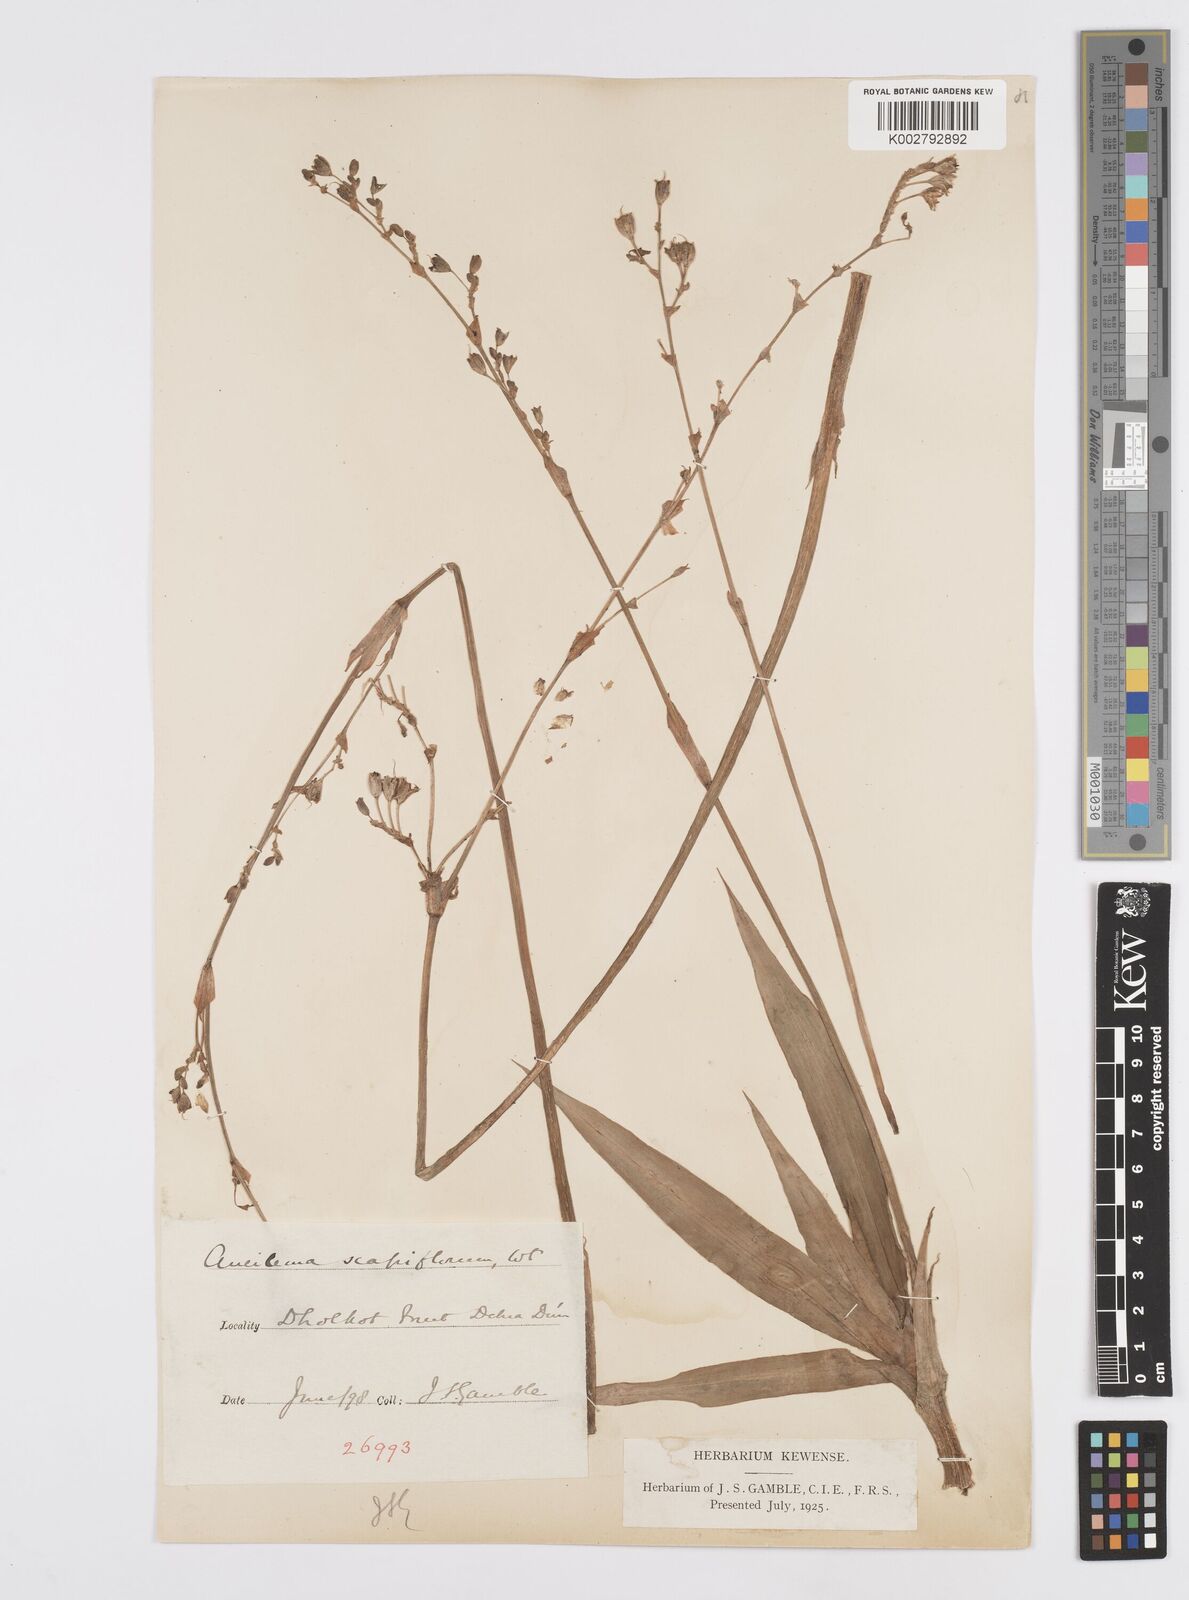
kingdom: Plantae
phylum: Tracheophyta
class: Liliopsida
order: Commelinales
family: Commelinaceae
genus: Murdannia
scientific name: Murdannia
